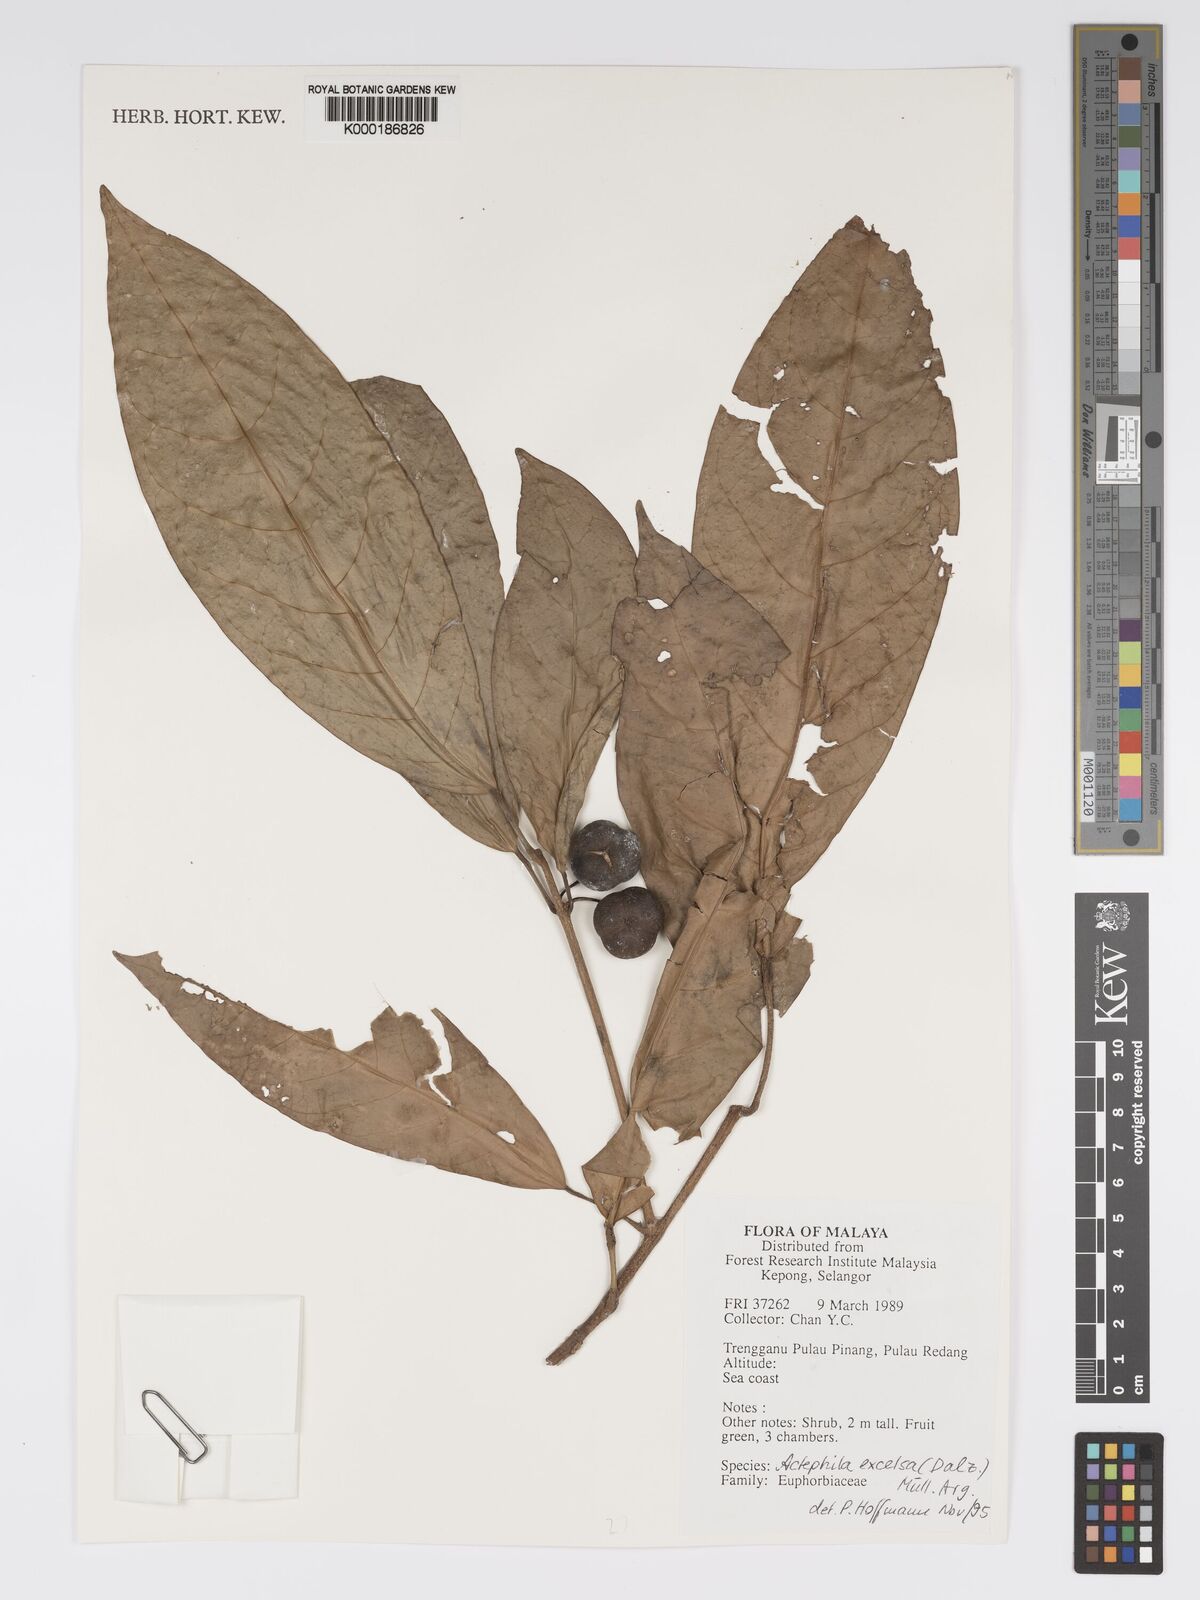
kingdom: Plantae
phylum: Tracheophyta
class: Magnoliopsida
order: Malpighiales
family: Phyllanthaceae
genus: Actephila
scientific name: Actephila
